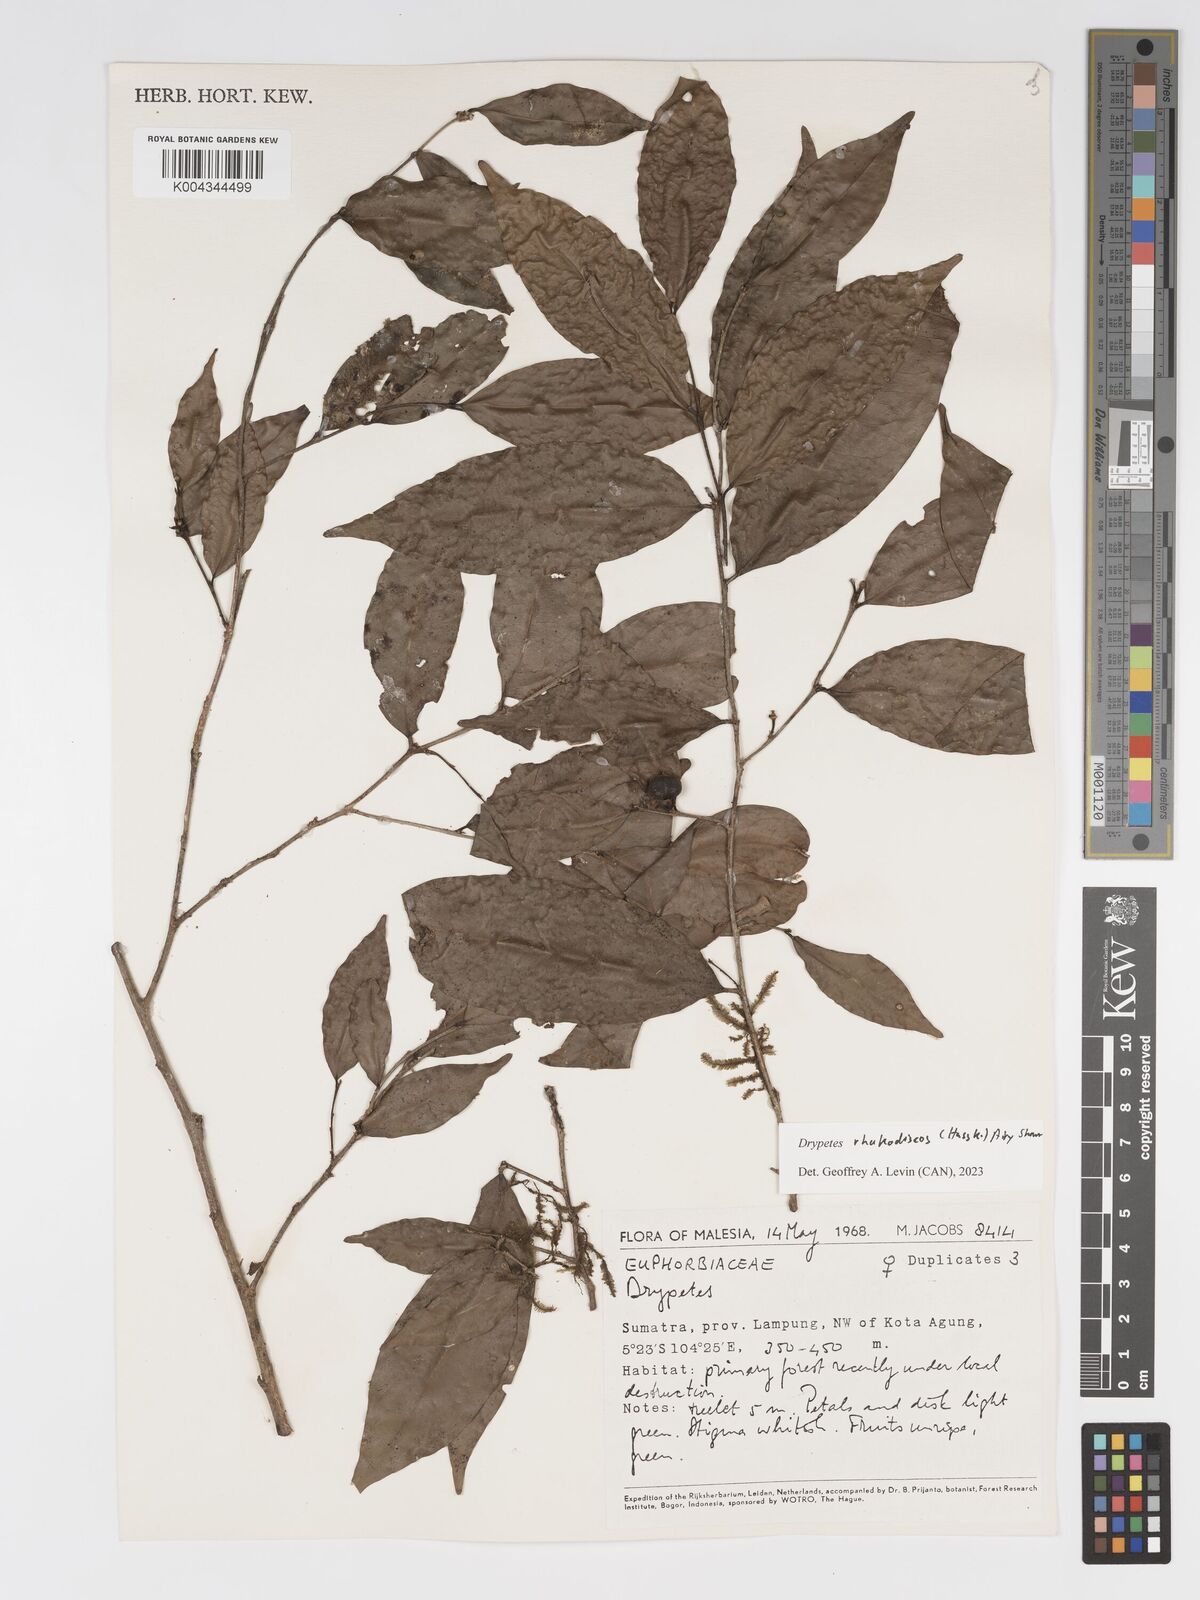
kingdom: Plantae
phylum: Tracheophyta
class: Magnoliopsida
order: Malpighiales
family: Putranjivaceae
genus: Drypetes
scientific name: Drypetes rhakodiskos
